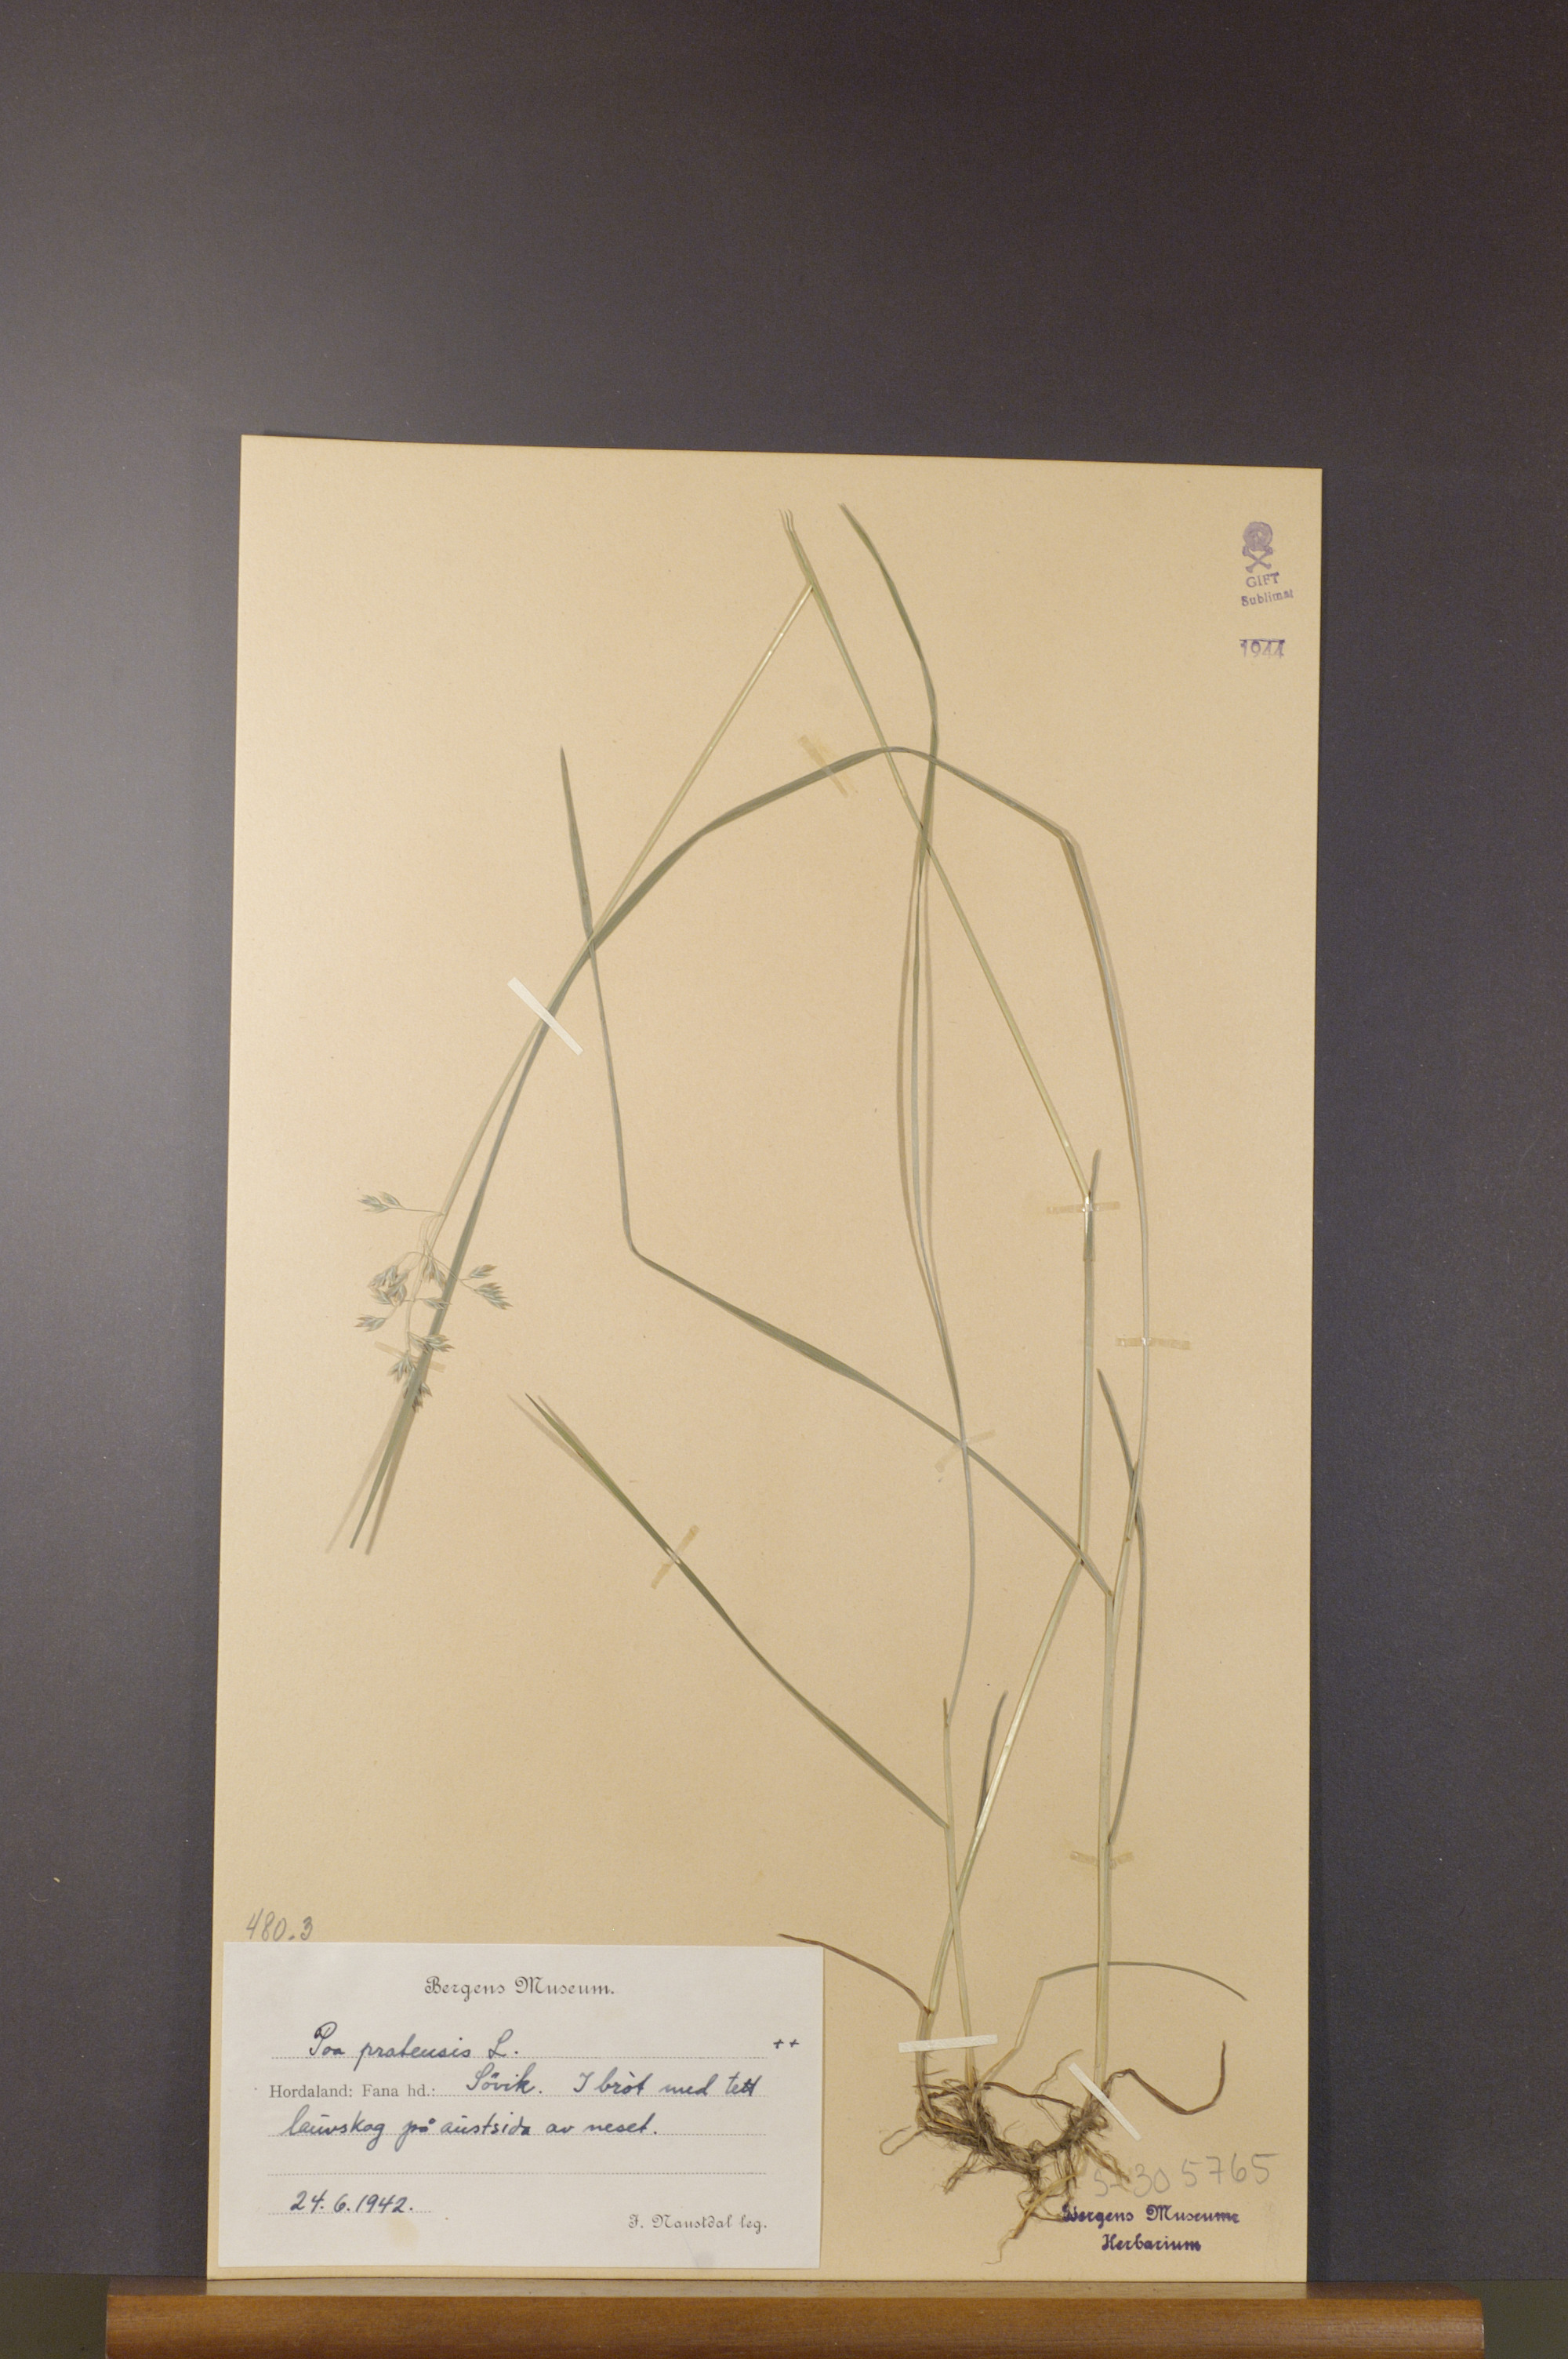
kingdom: Plantae
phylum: Tracheophyta
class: Liliopsida
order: Poales
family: Poaceae
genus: Poa
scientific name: Poa pratensis
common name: Kentucky bluegrass
